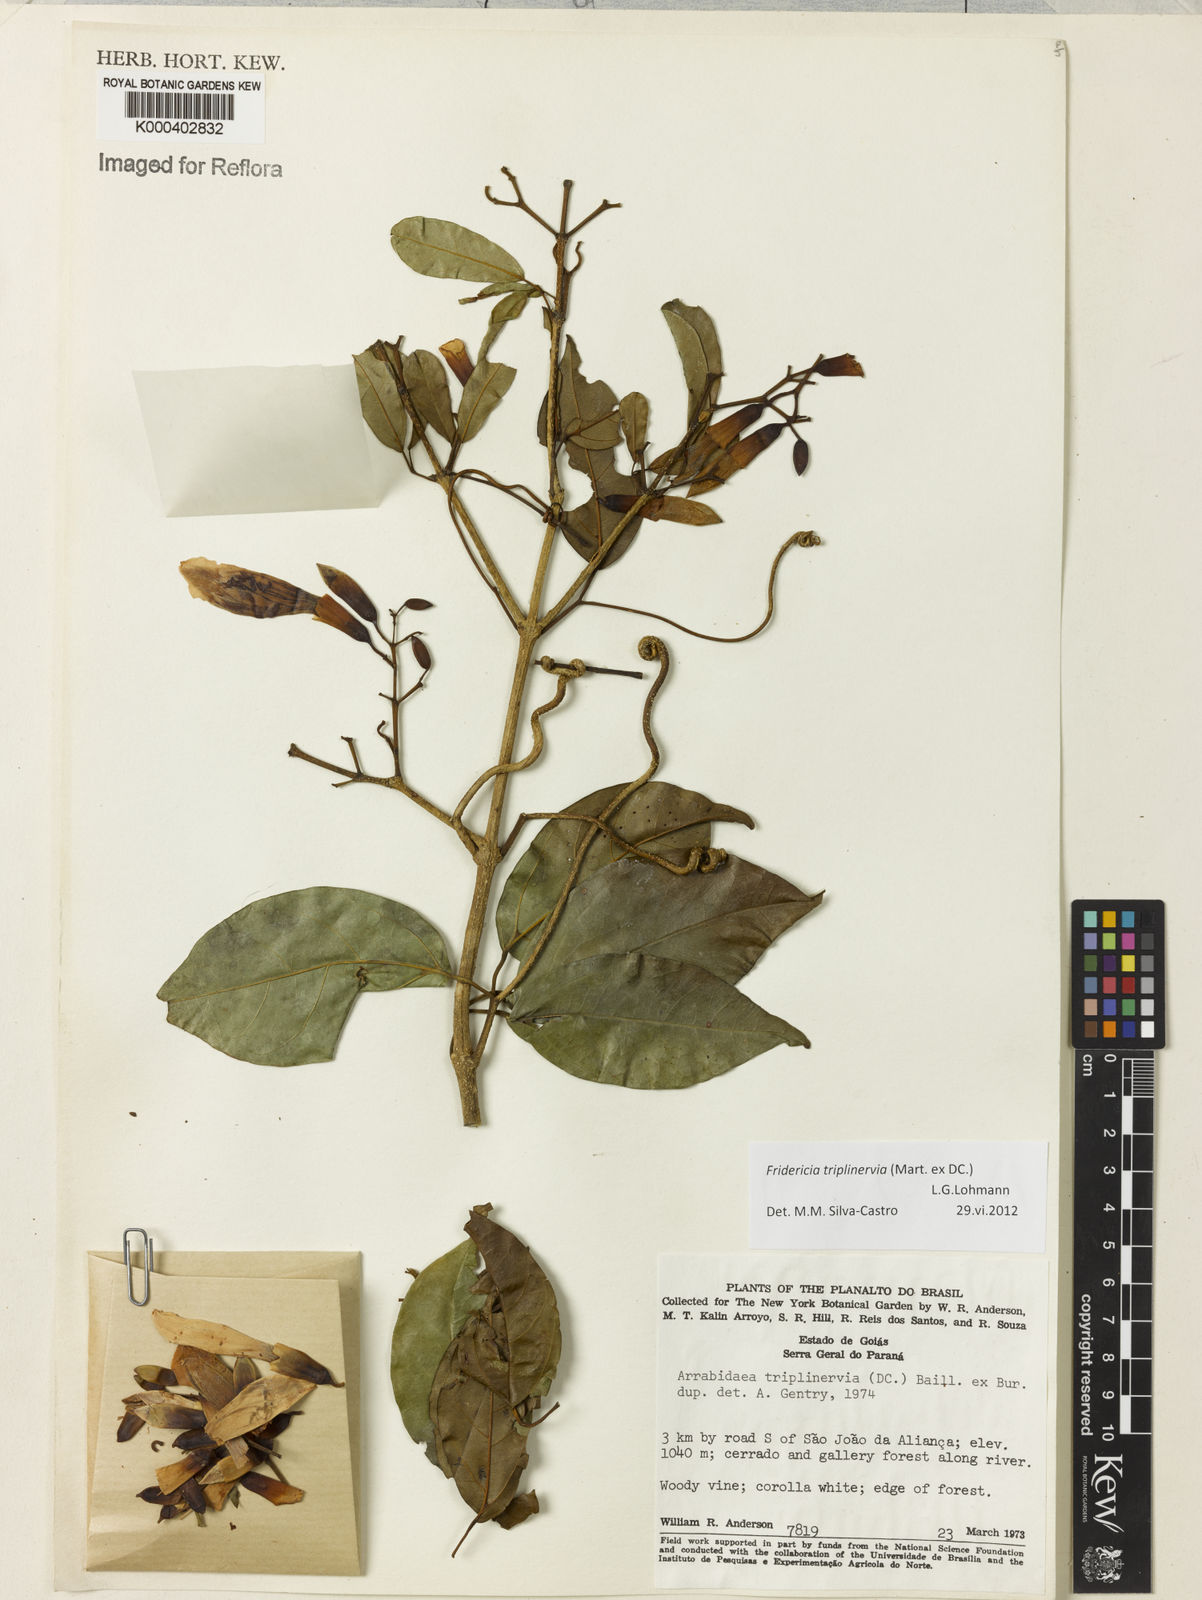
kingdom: Plantae
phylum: Tracheophyta
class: Magnoliopsida
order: Lamiales
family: Bignoniaceae
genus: Fridericia
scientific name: Fridericia triplinervia
